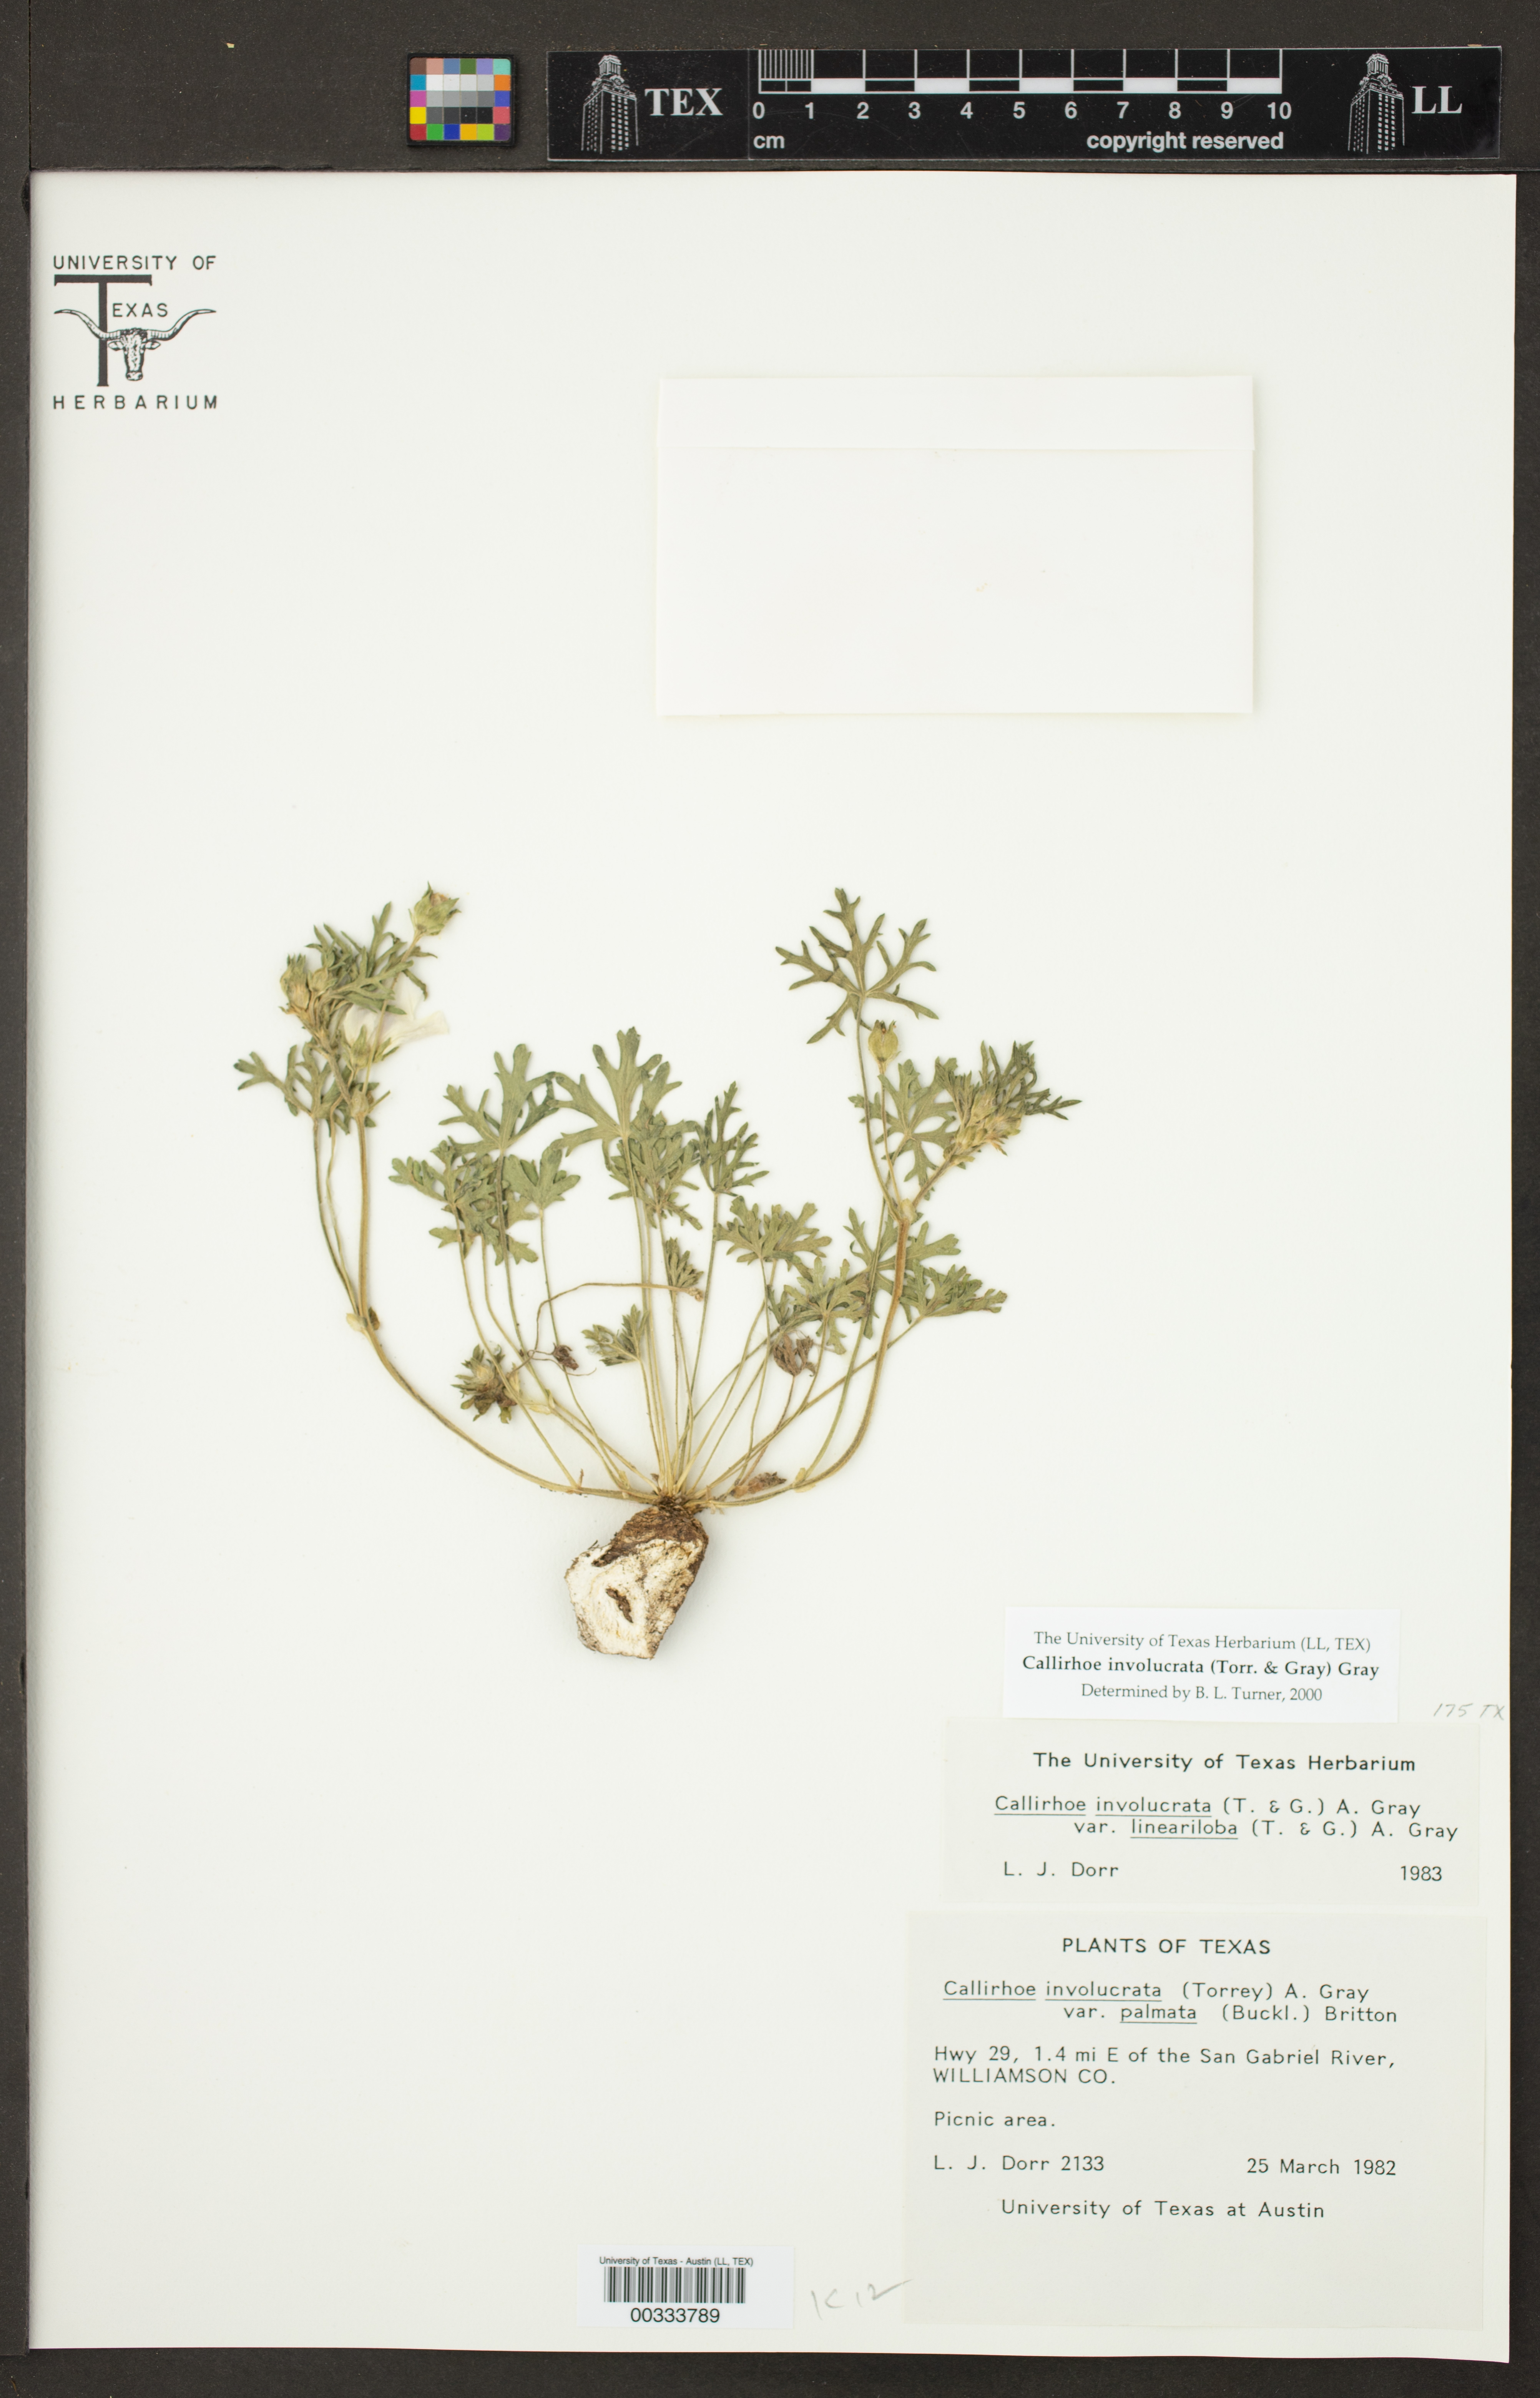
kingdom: Plantae
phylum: Tracheophyta
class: Magnoliopsida
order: Malvales
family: Malvaceae
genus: Callirhoe
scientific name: Callirhoe involucrata
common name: Purple poppy-mallow
